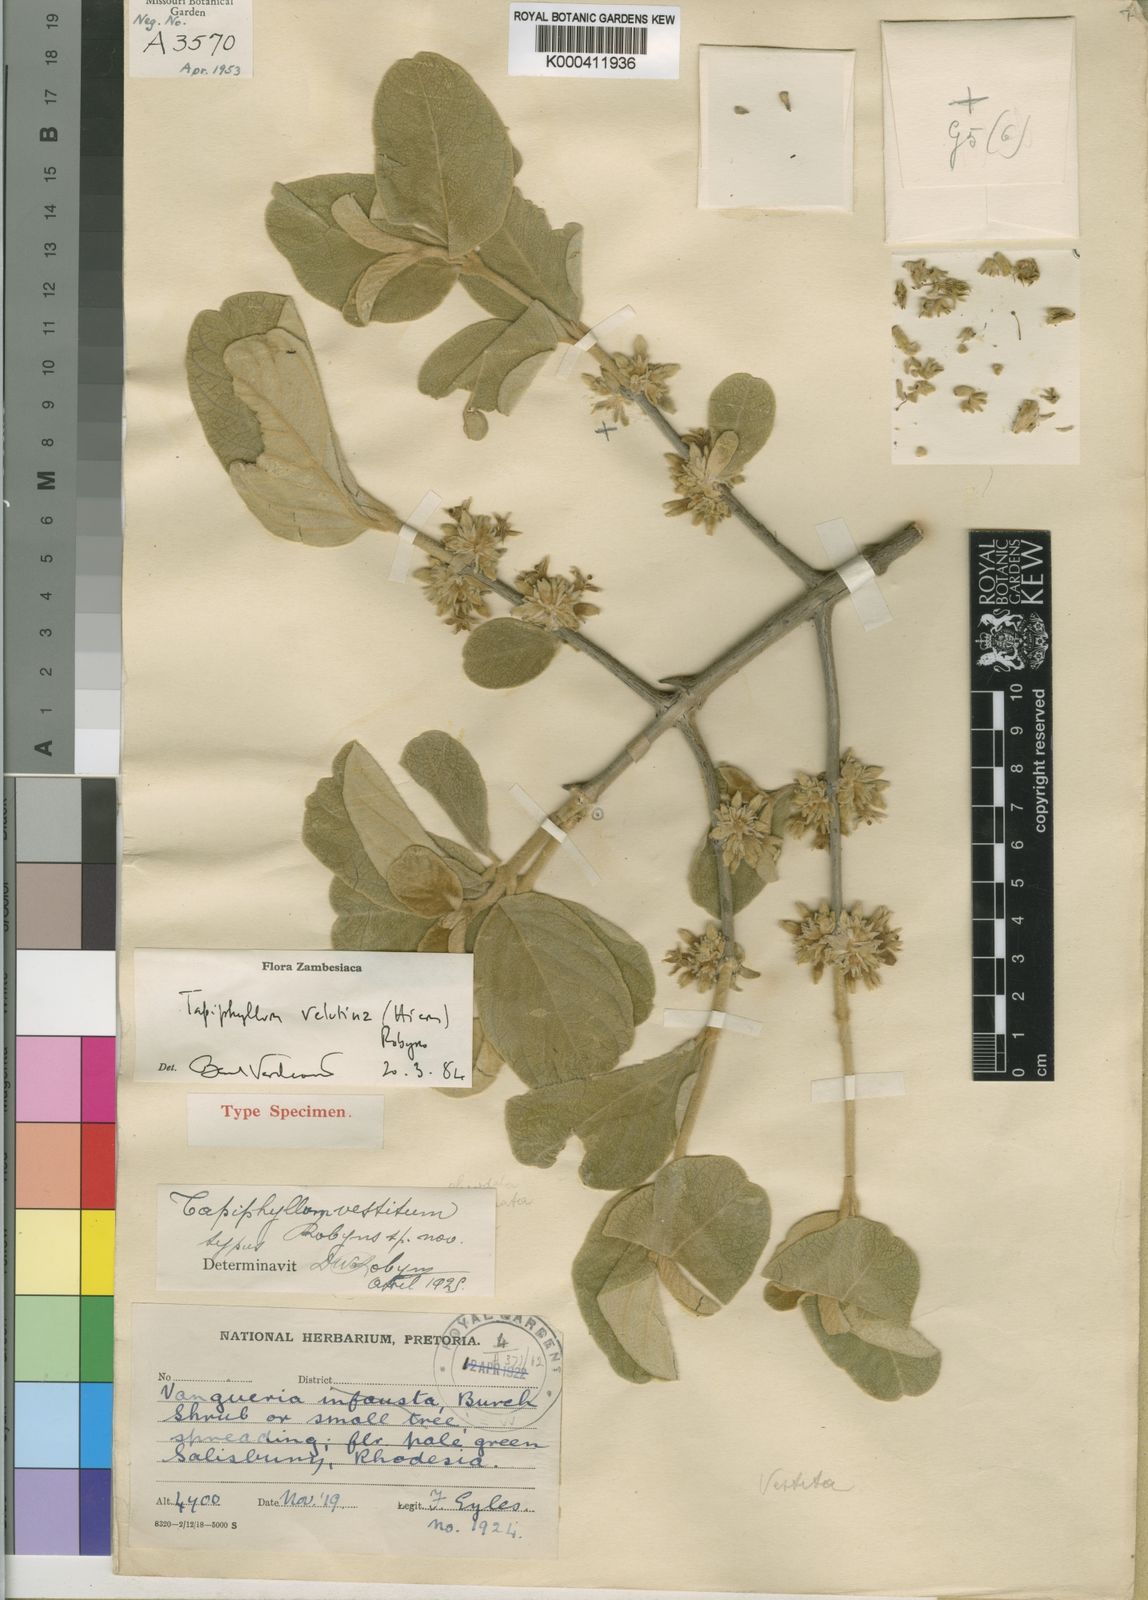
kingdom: Plantae
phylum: Tracheophyta
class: Magnoliopsida
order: Gentianales
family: Rubiaceae
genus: Vangueria
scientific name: Vangueria vestita
